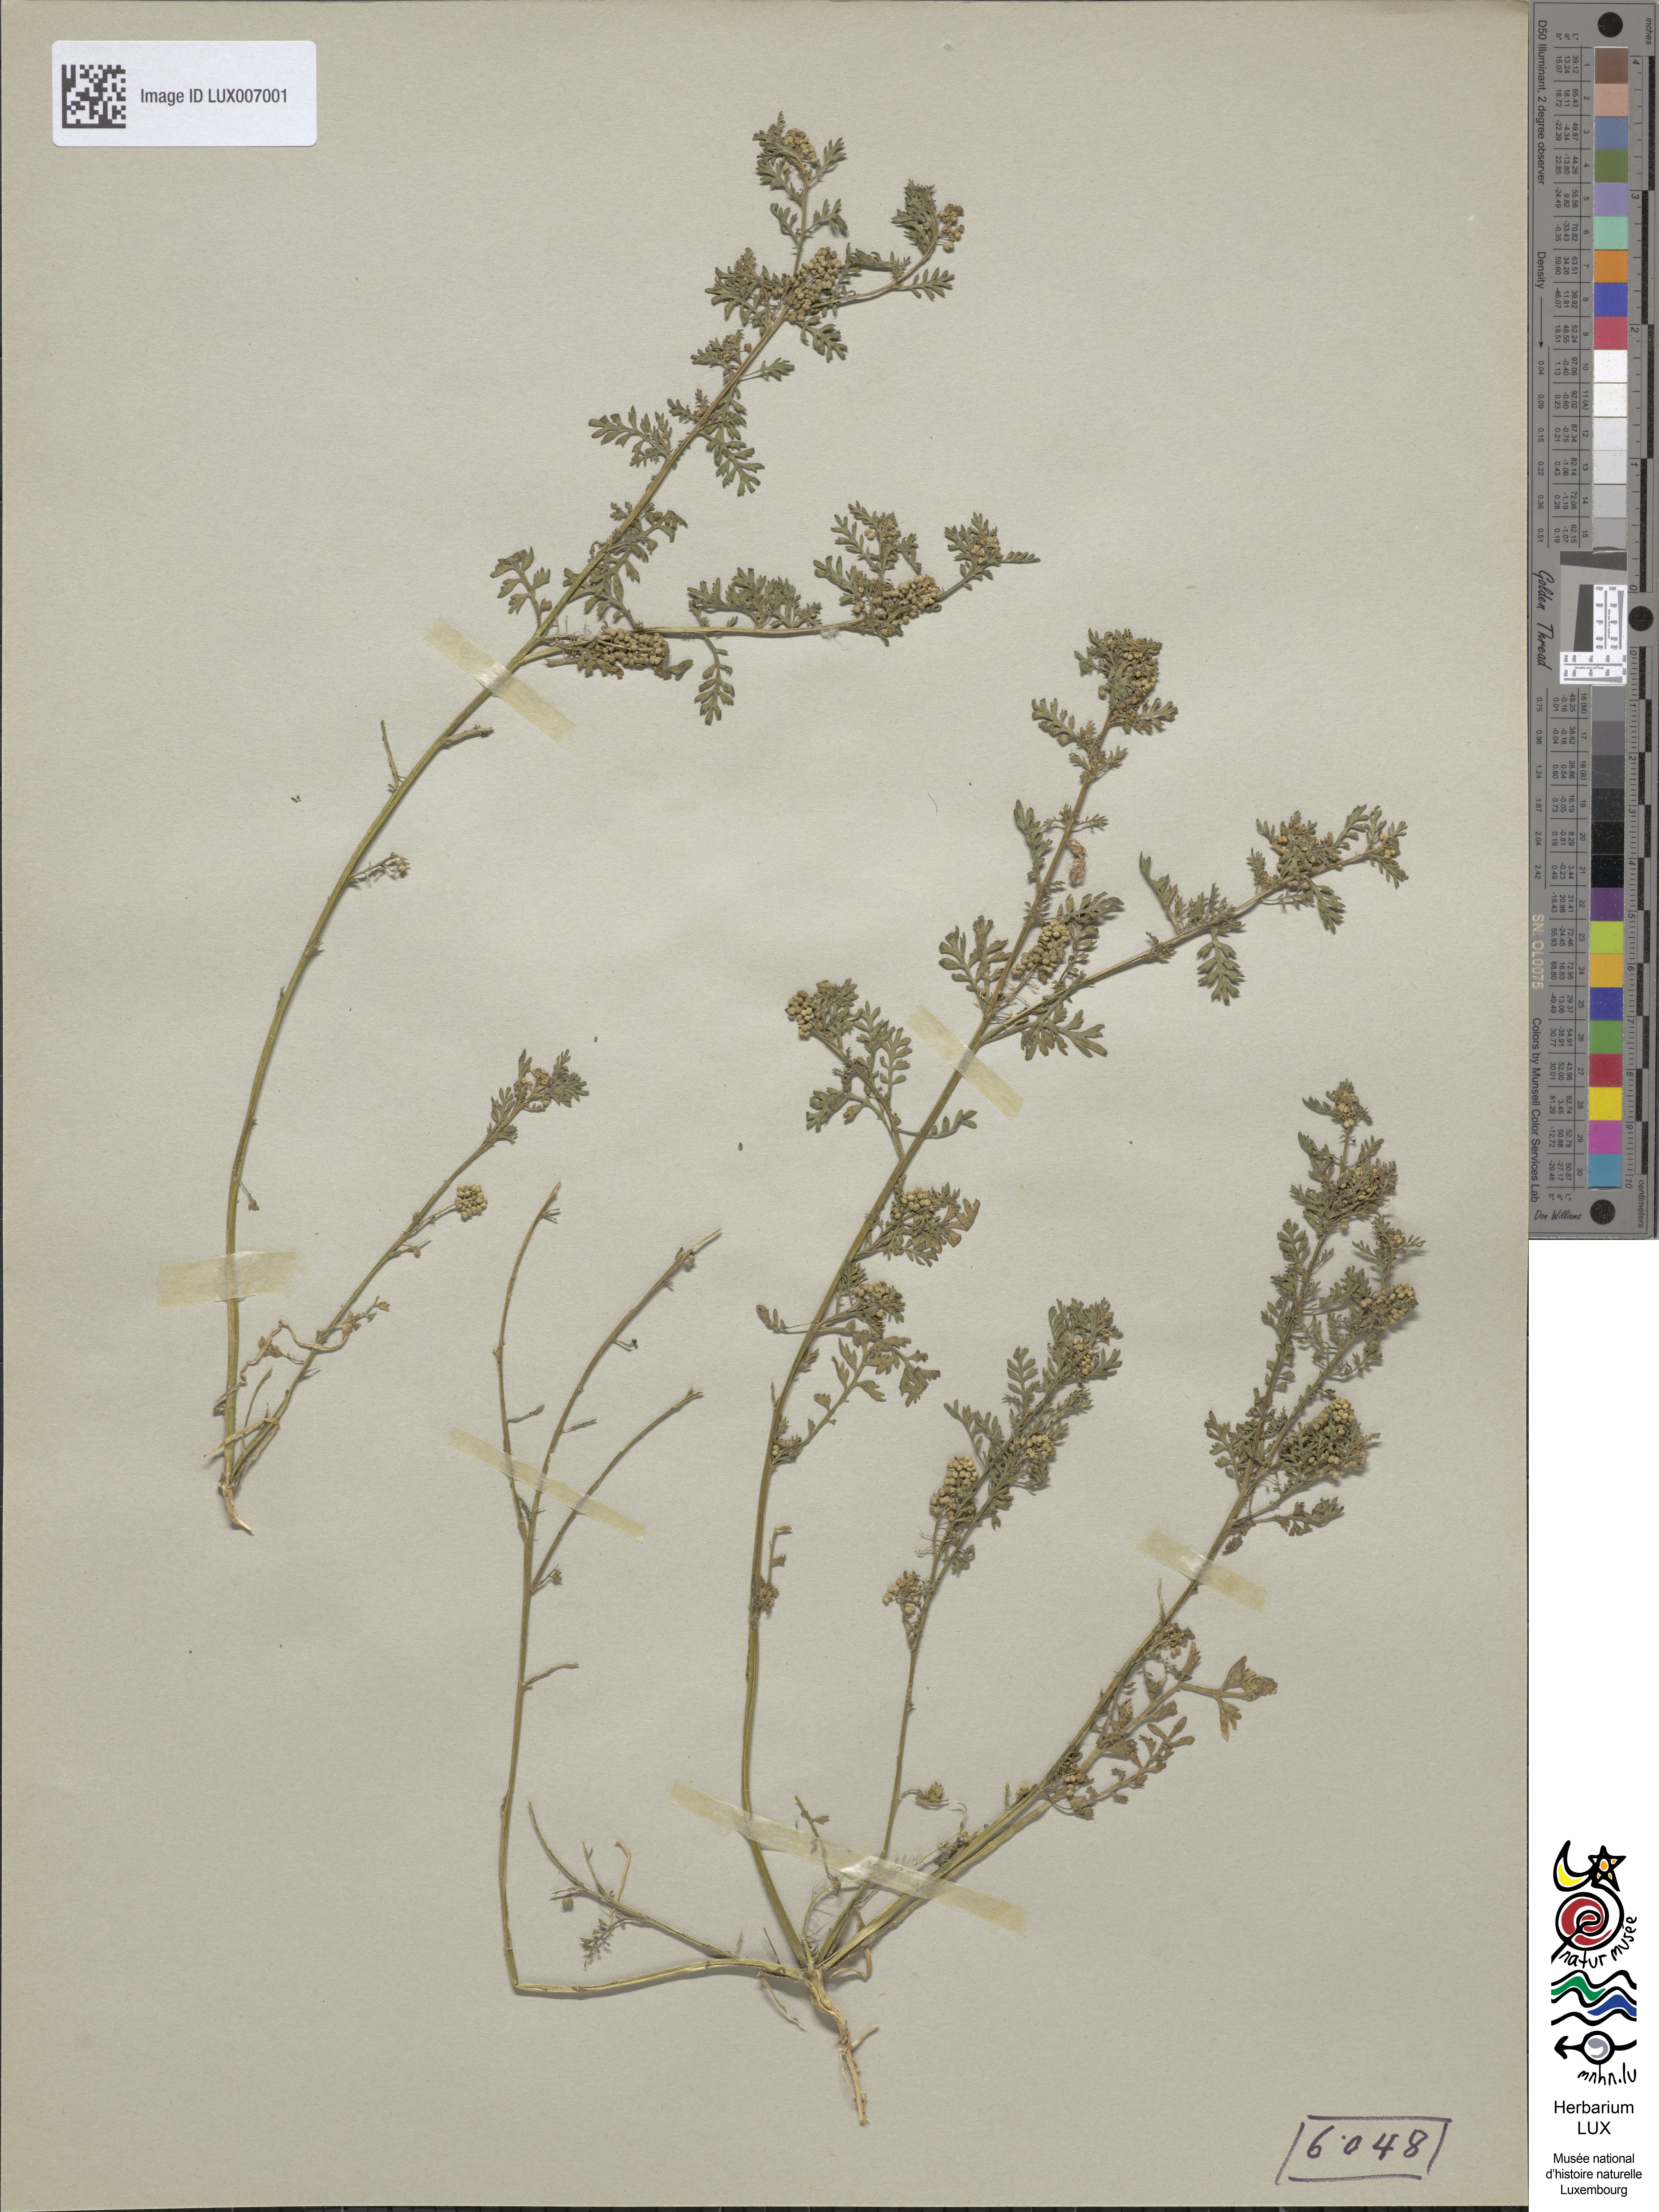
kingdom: Plantae
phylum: Tracheophyta
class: Magnoliopsida
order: Brassicales
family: Brassicaceae
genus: Lepidium
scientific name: Lepidium didymum
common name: Lesser swinecress
